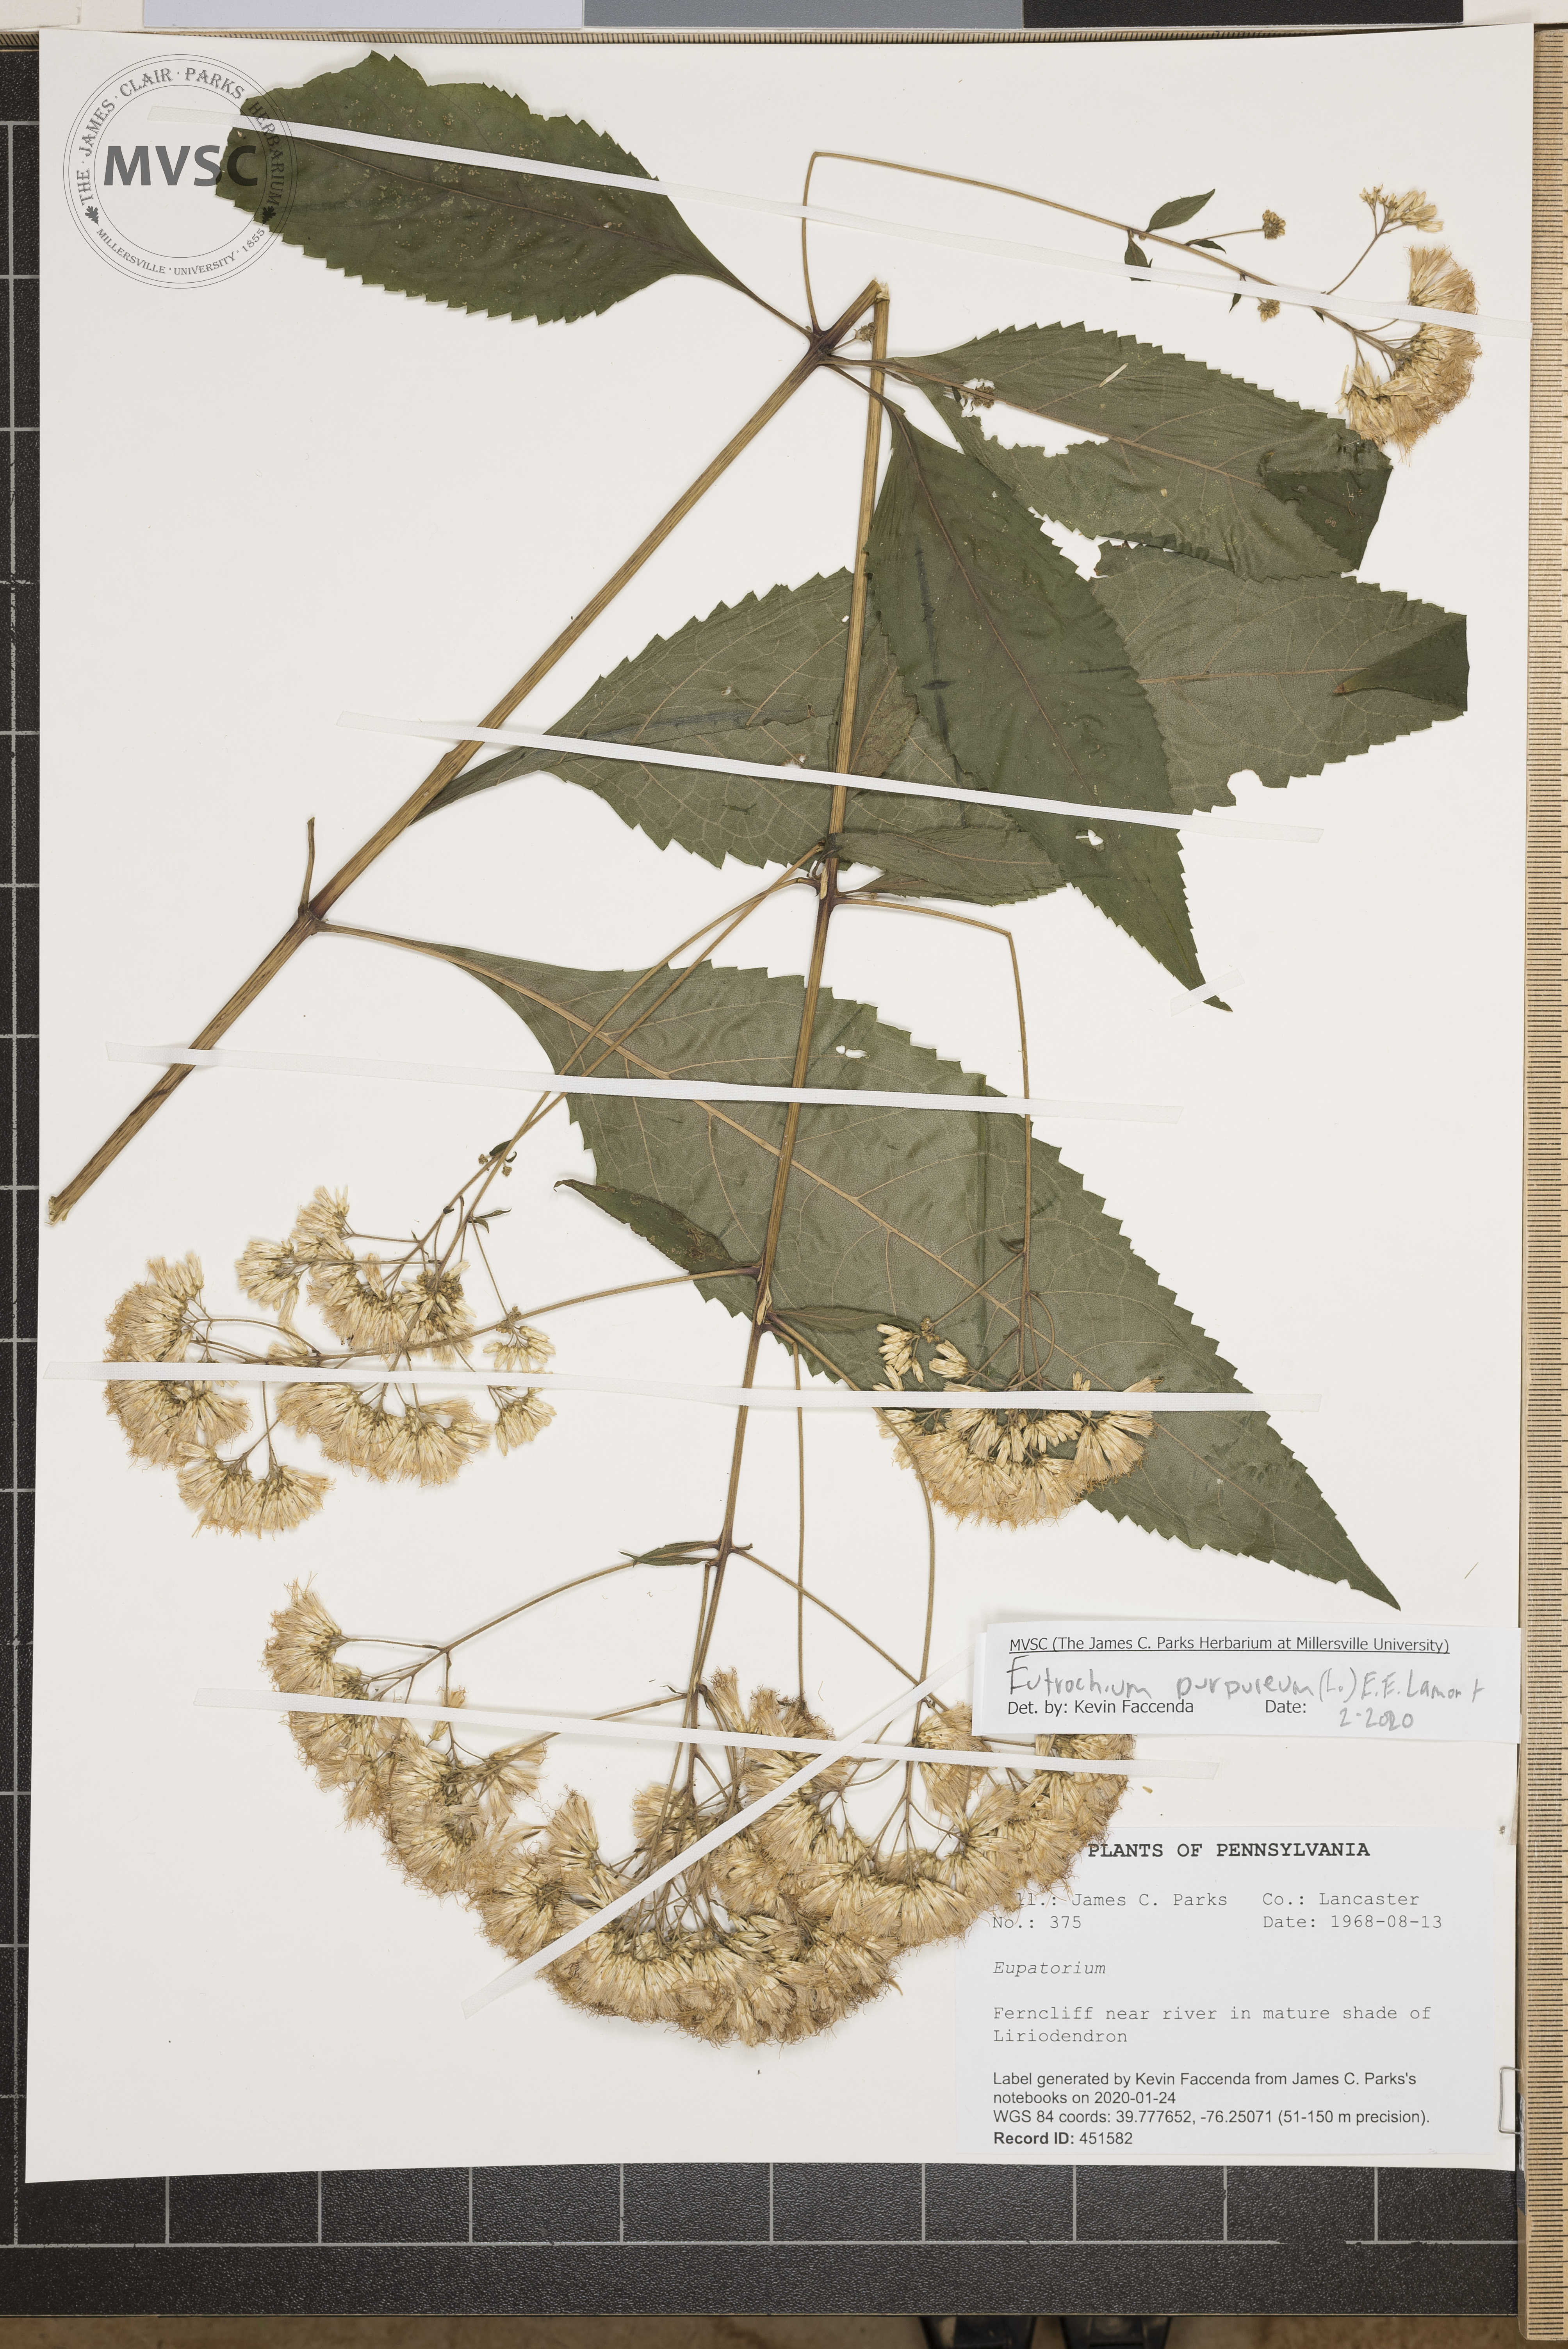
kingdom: Plantae
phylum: Tracheophyta
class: Magnoliopsida
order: Asterales
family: Asteraceae
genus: Eutrochium
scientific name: Eutrochium purpureum
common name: Gravelroot
